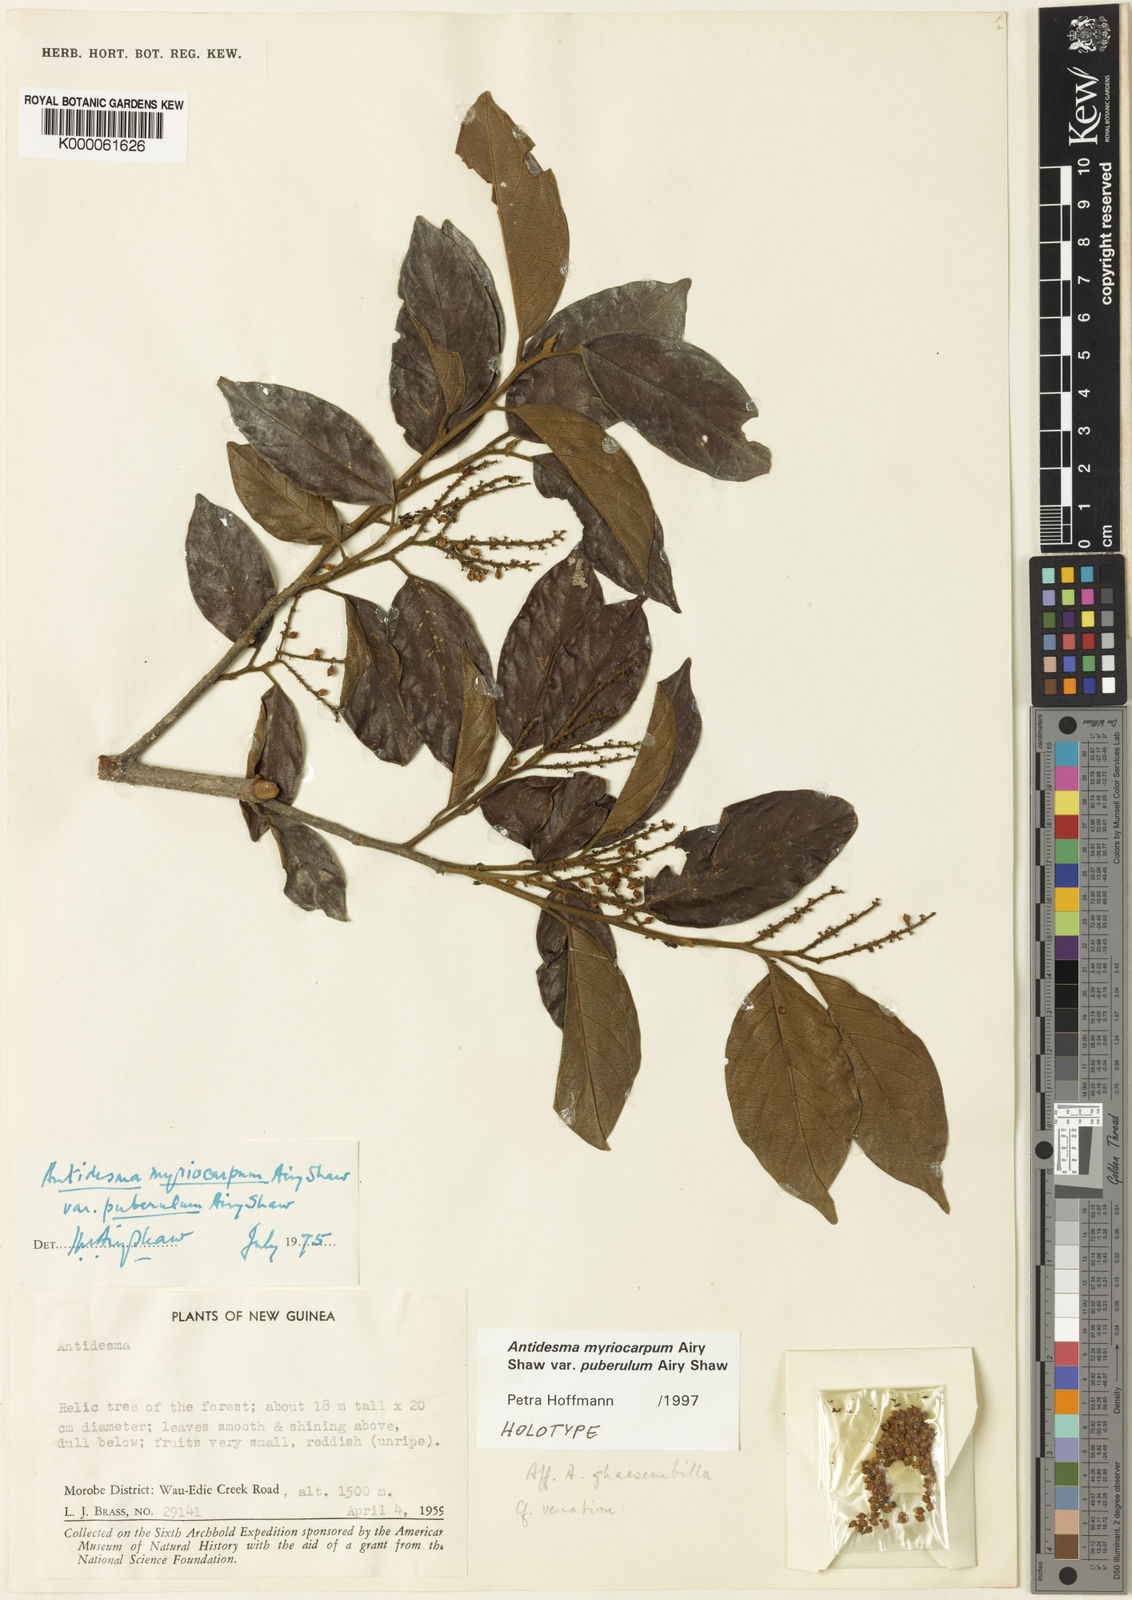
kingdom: Plantae
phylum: Tracheophyta
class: Magnoliopsida
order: Malpighiales
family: Phyllanthaceae
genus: Antidesma
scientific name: Antidesma myriocarpum
